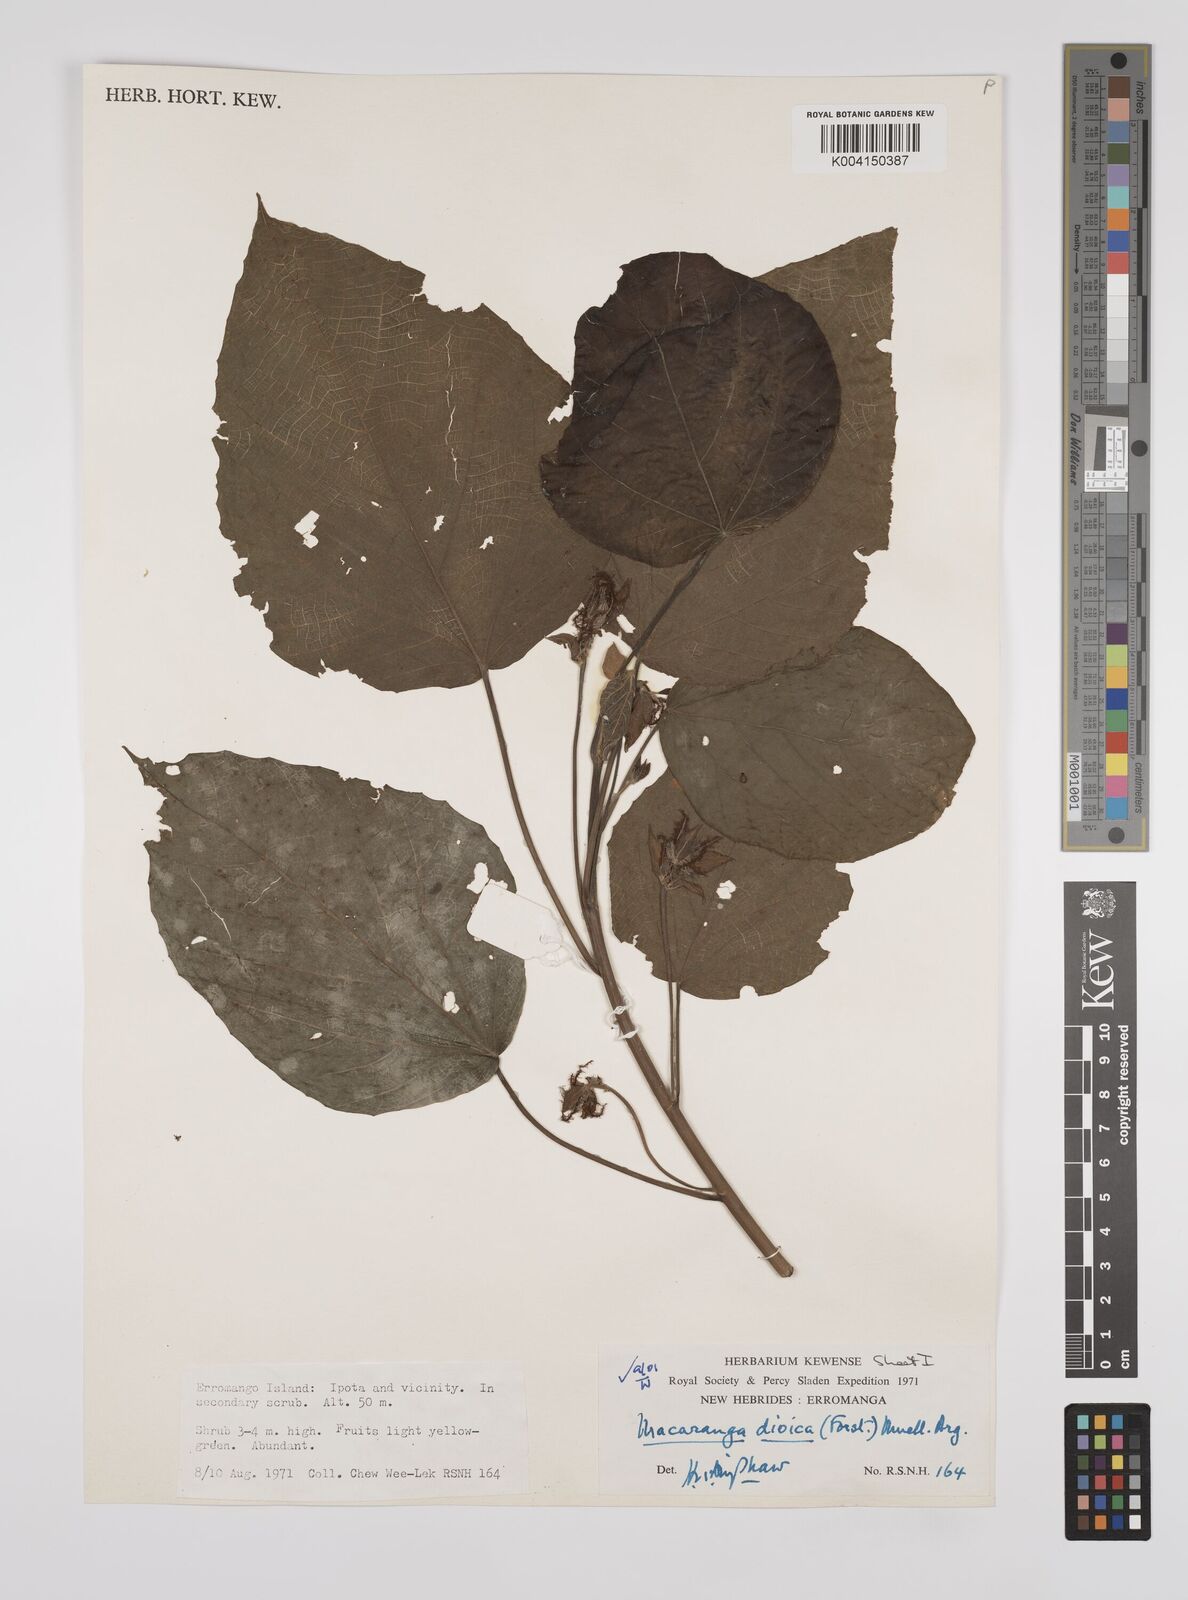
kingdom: Plantae
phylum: Tracheophyta
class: Magnoliopsida
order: Malpighiales
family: Euphorbiaceae
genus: Macaranga
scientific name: Macaranga dioica
